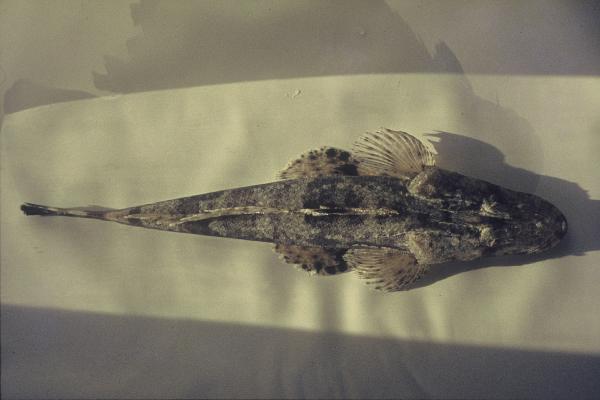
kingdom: Animalia
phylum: Chordata
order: Scorpaeniformes
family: Platycephalidae
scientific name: Platycephalidae
